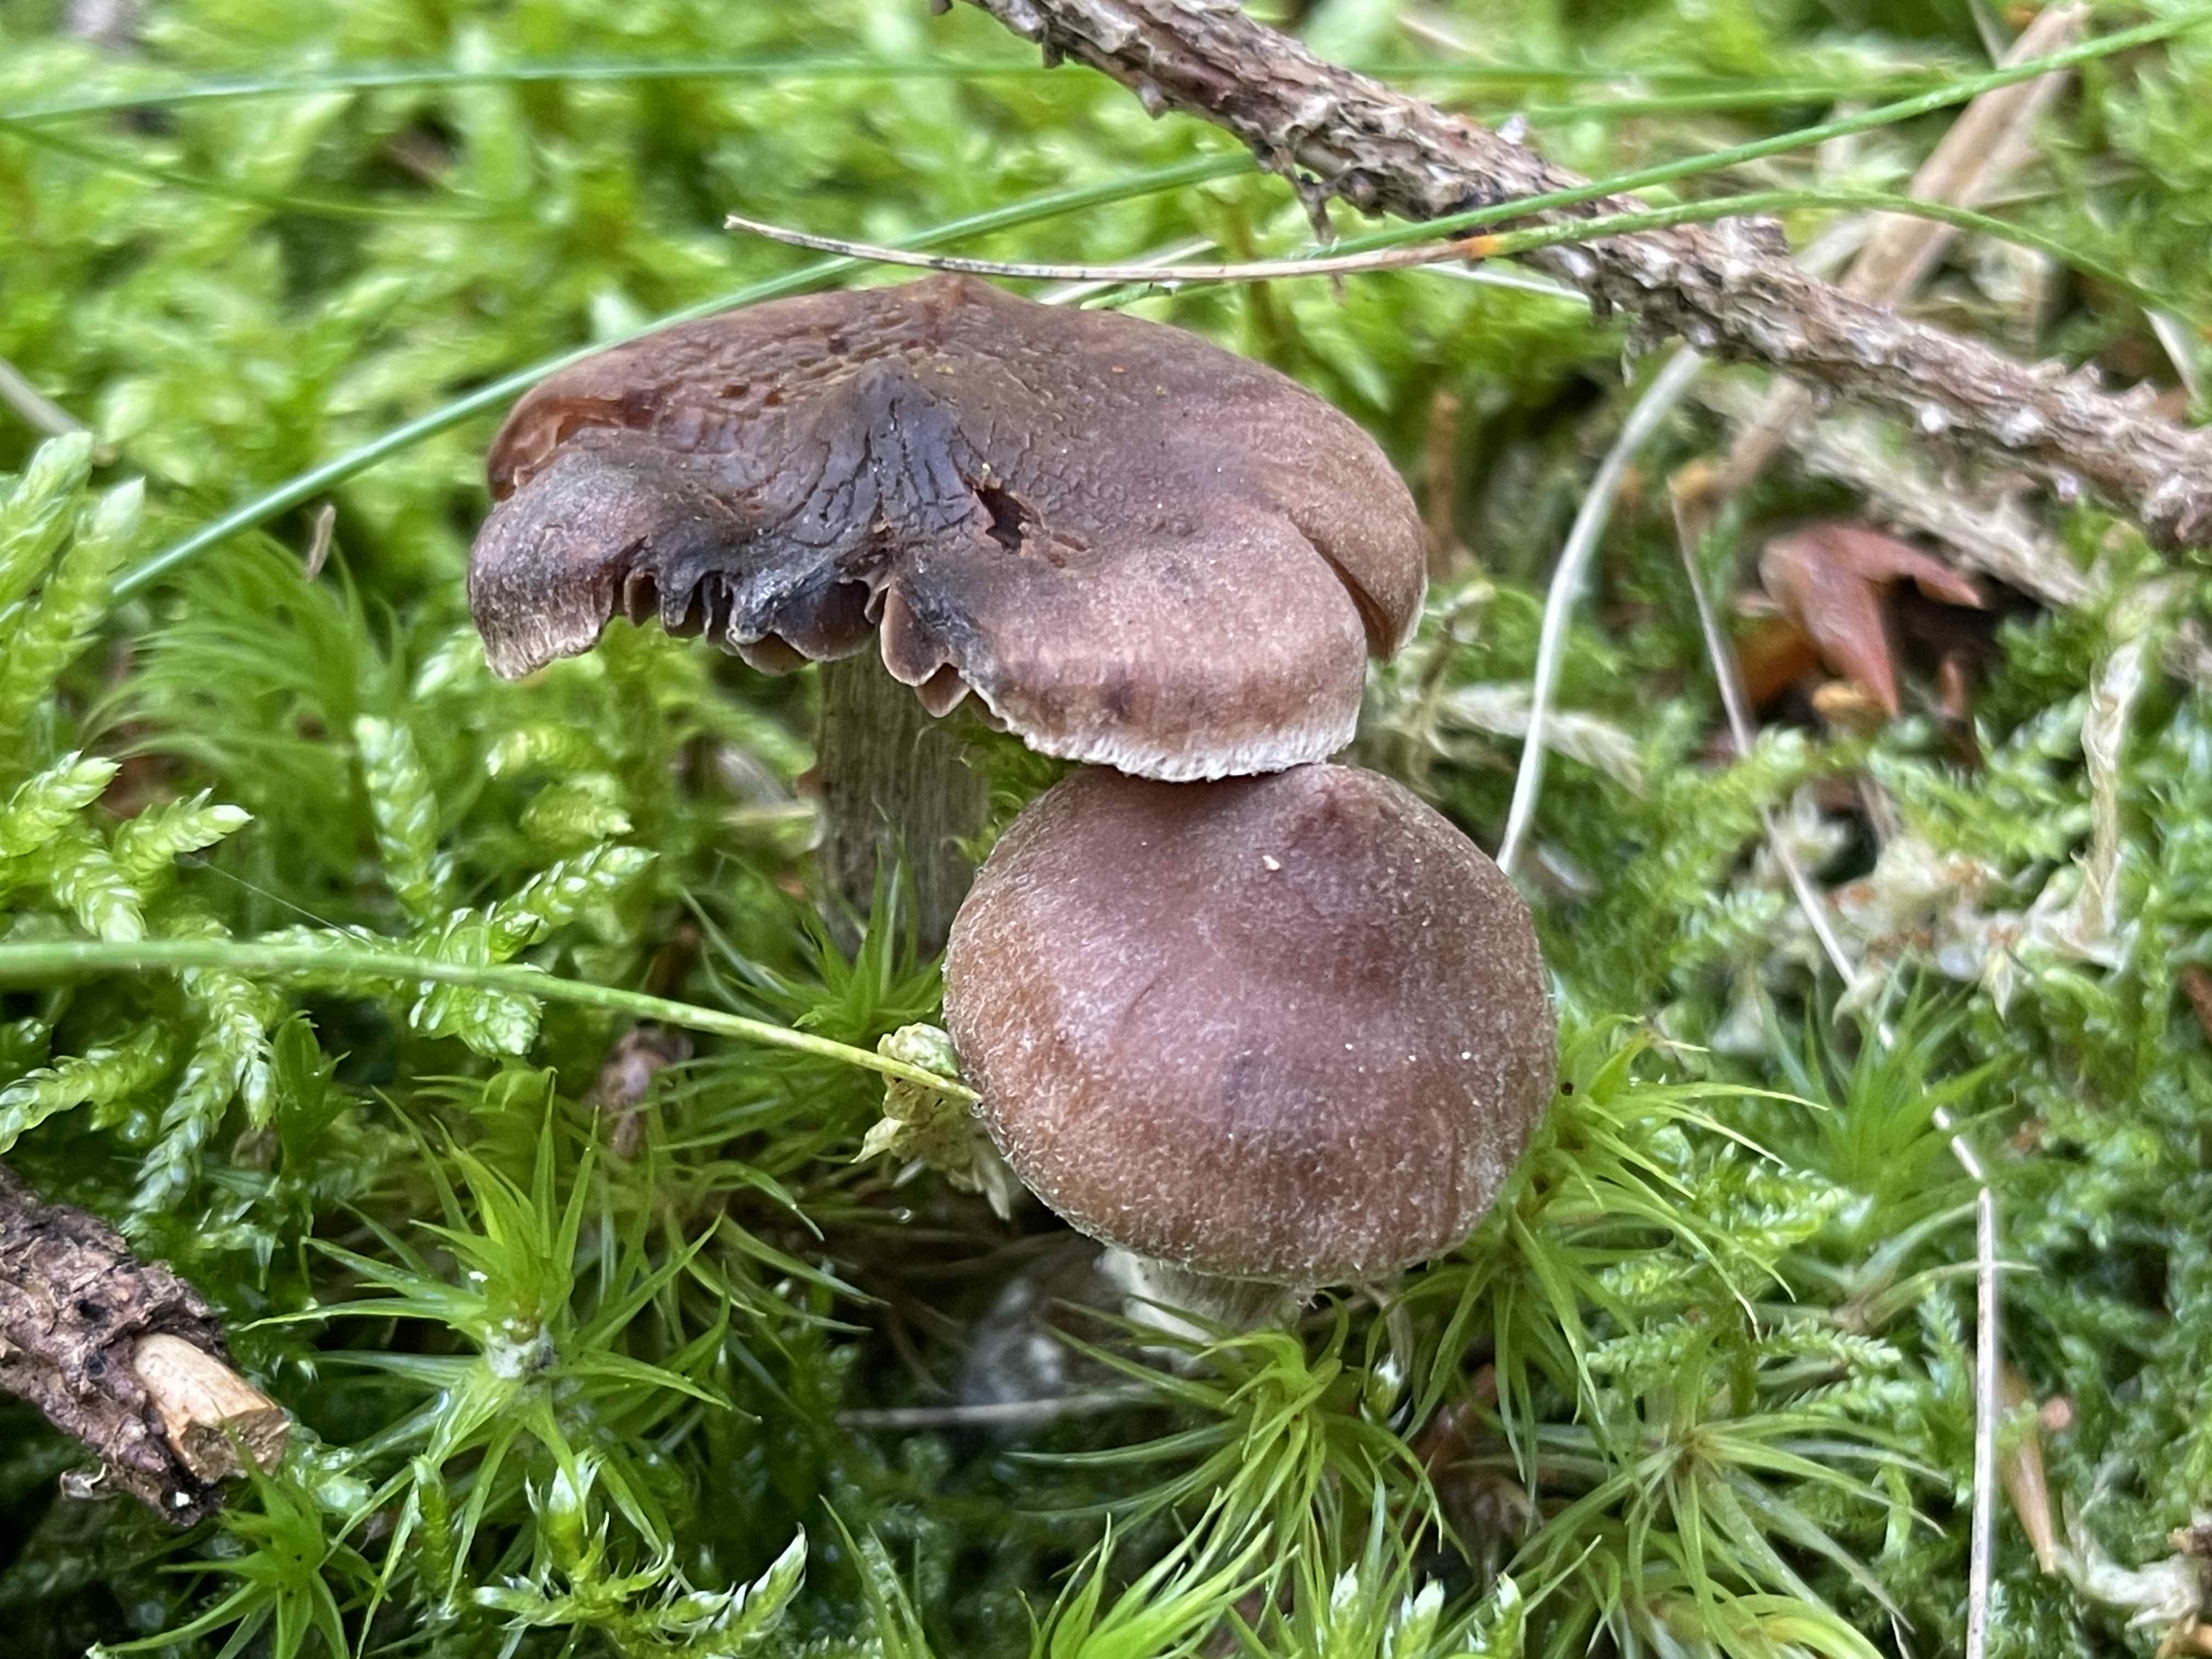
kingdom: Fungi
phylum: Basidiomycota
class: Agaricomycetes
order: Agaricales
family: Cortinariaceae
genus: Cortinarius
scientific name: Cortinarius
